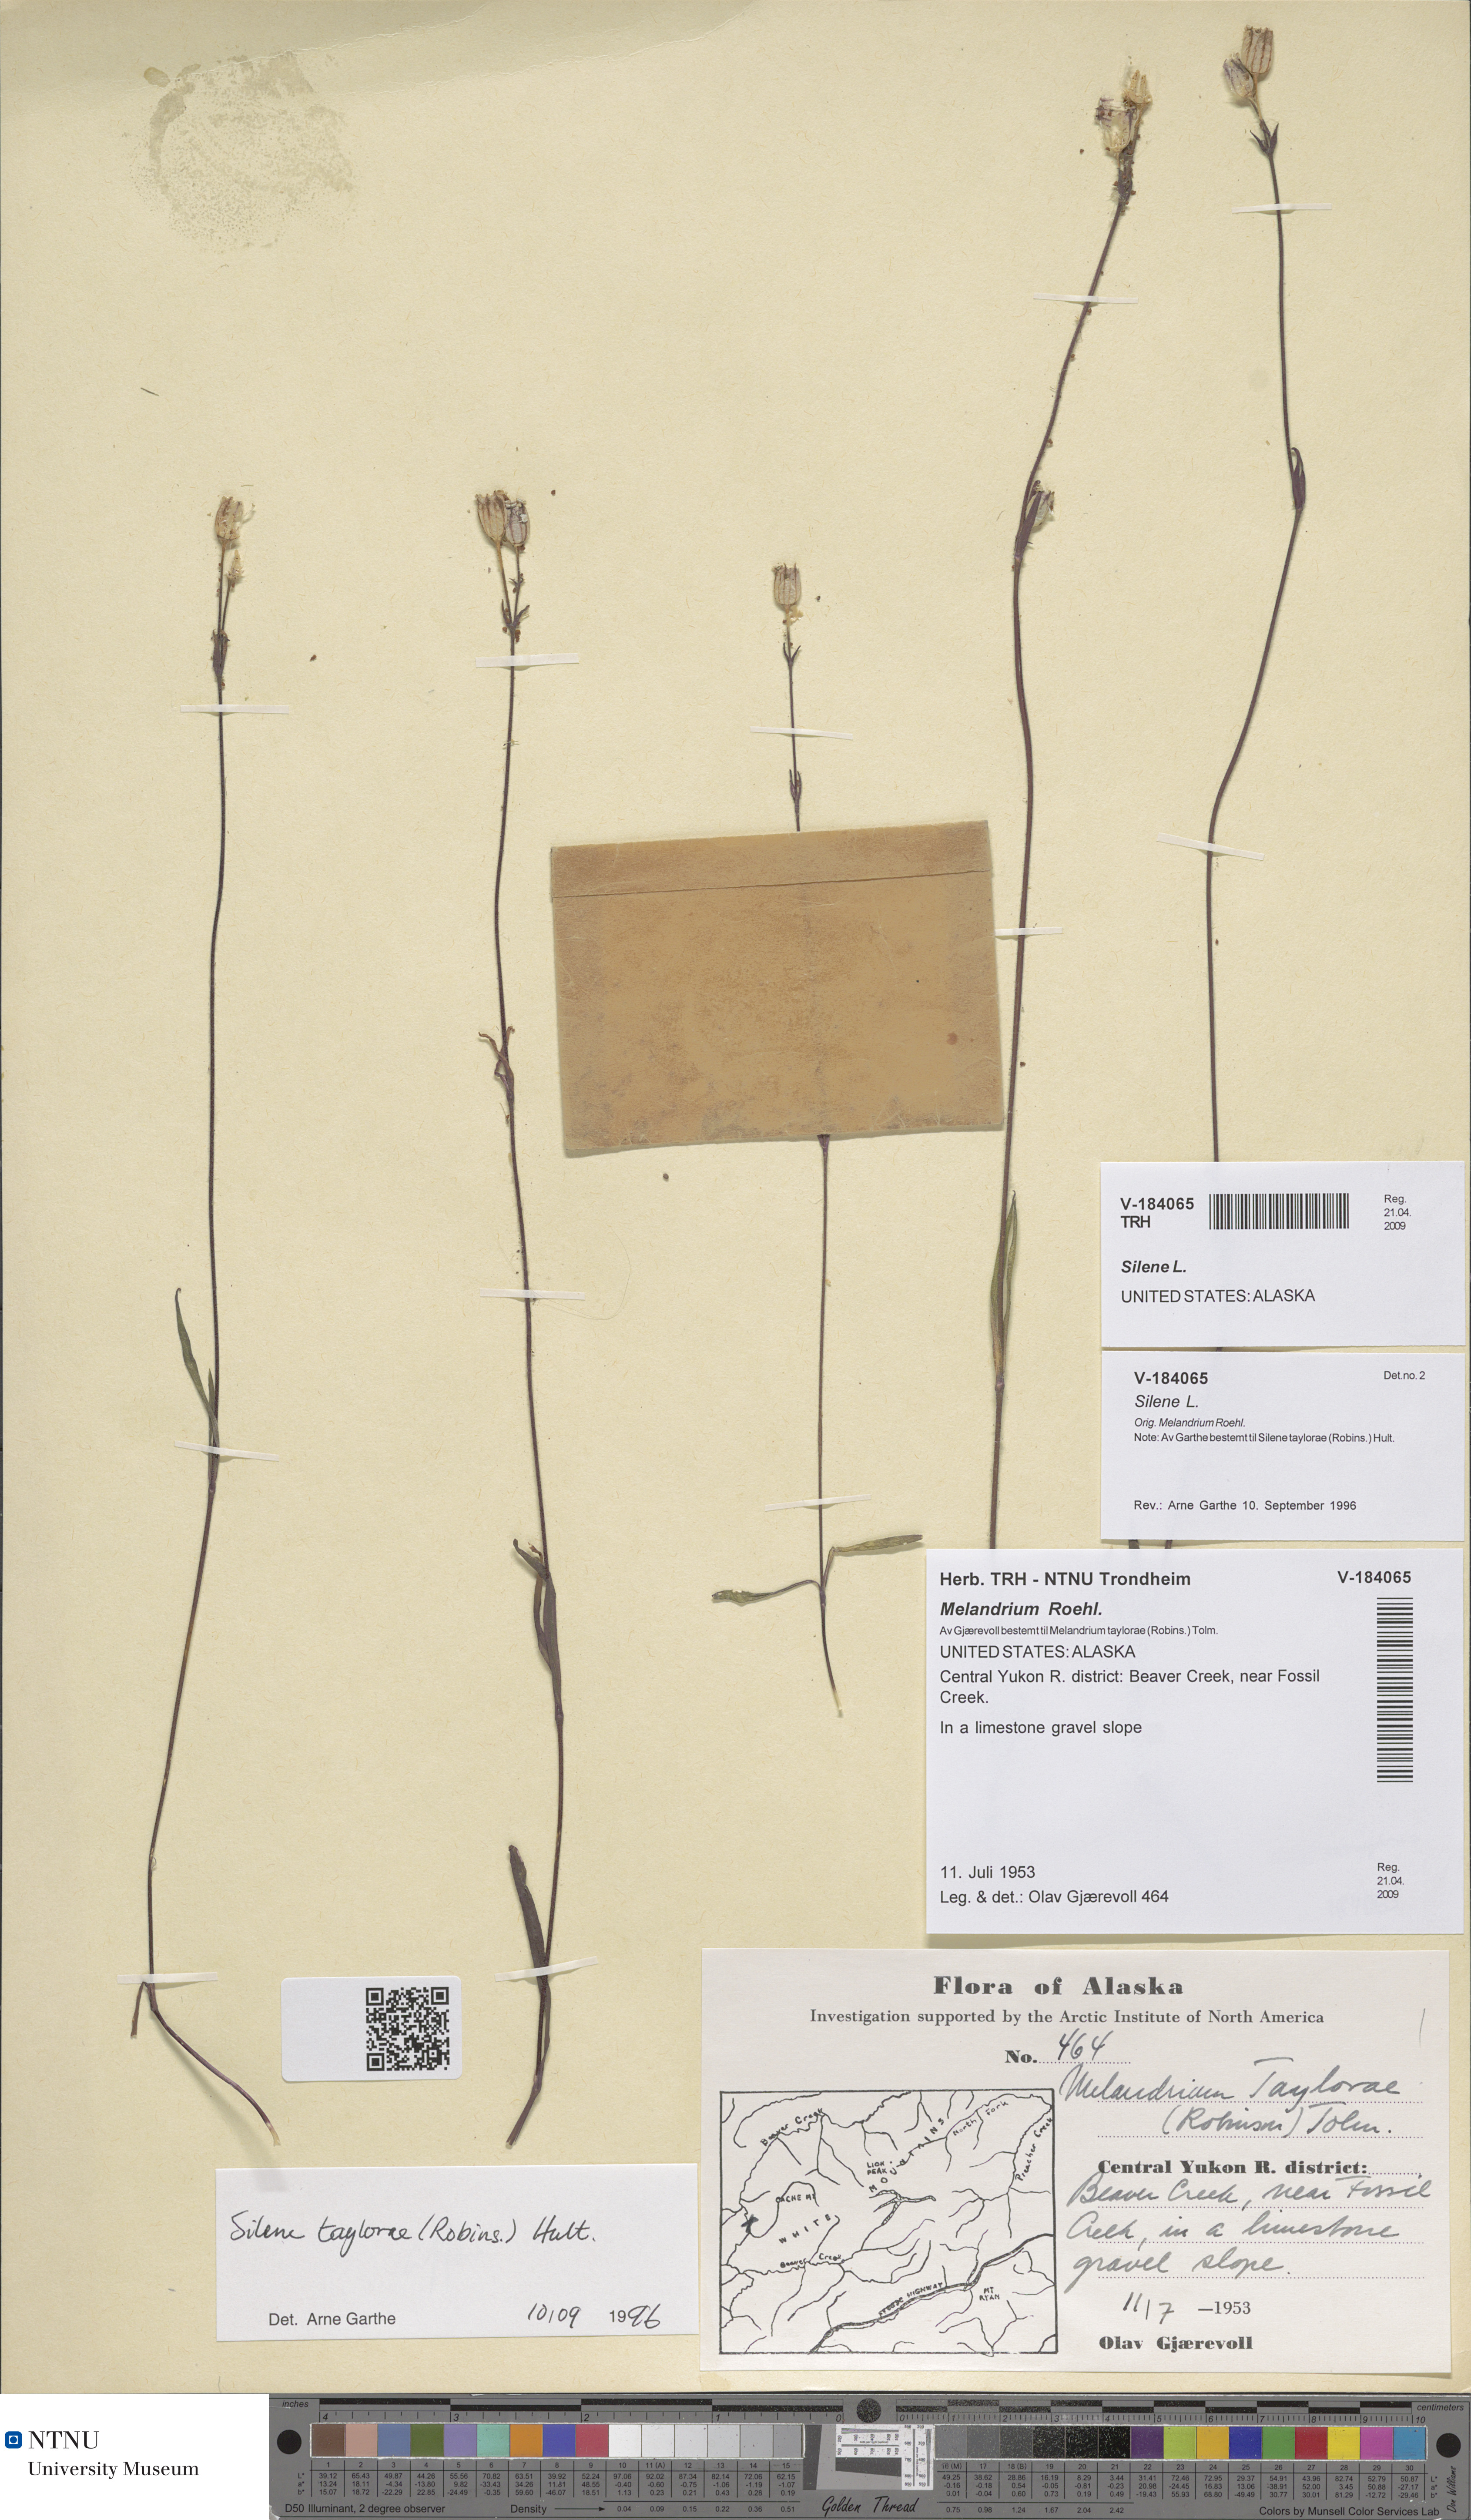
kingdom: Plantae
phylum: Tracheophyta
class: Magnoliopsida
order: Caryophyllales
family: Caryophyllaceae
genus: Silene
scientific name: Silene
